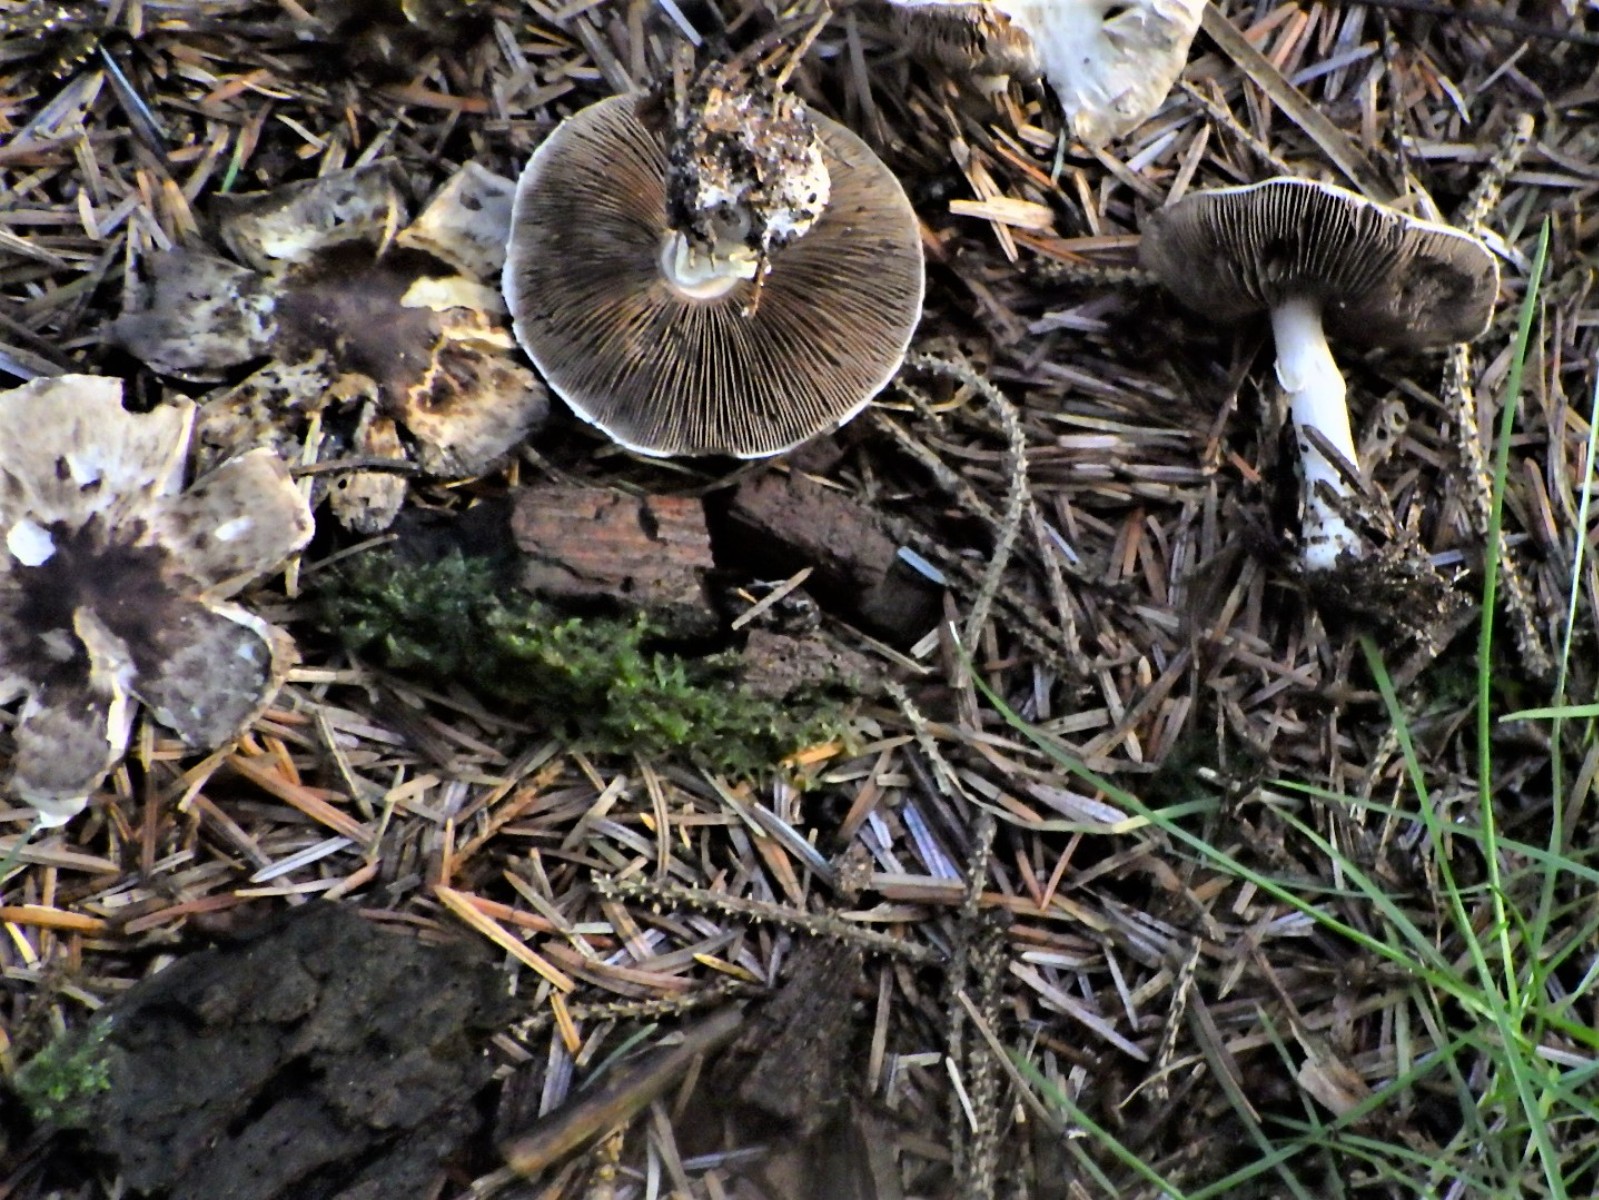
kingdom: Fungi
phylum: Basidiomycota
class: Agaricomycetes
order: Agaricales
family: Agaricaceae
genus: Agaricus
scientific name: Agaricus
